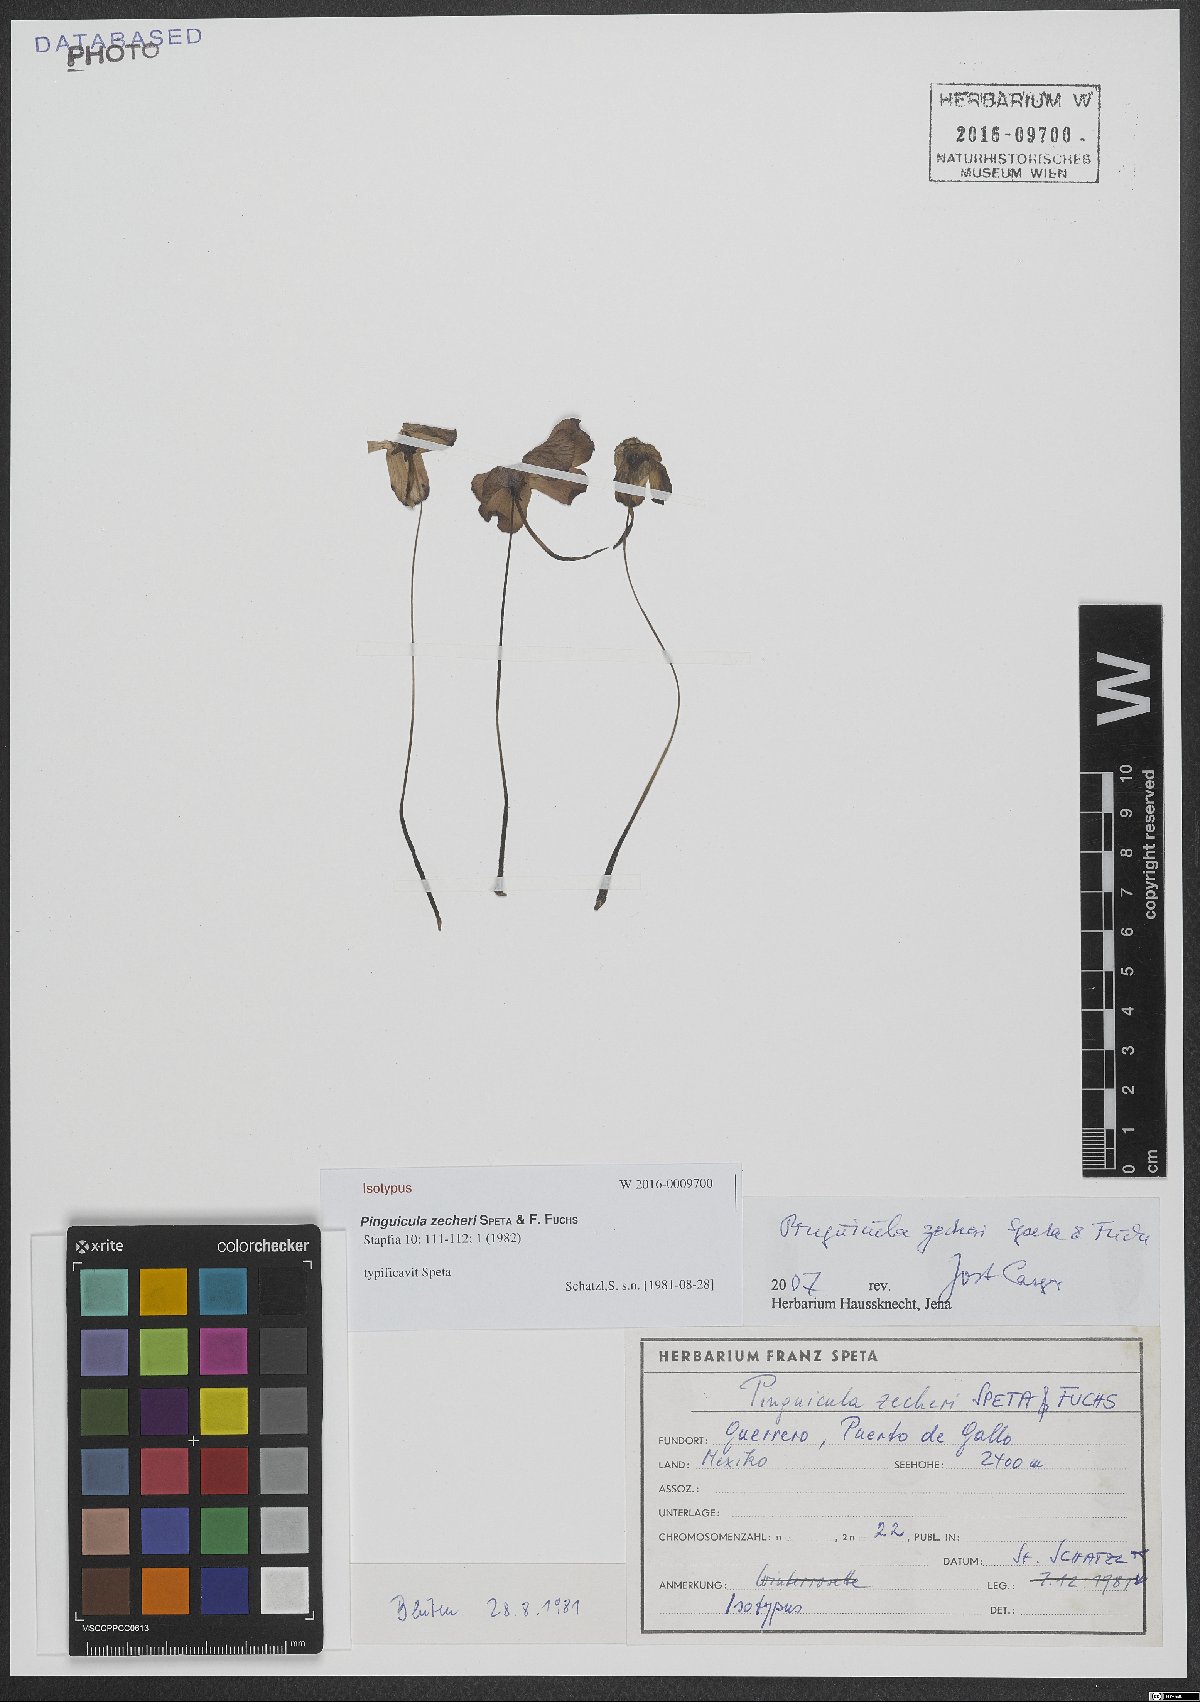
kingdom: Plantae
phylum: Tracheophyta
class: Magnoliopsida
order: Lamiales
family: Lentibulariaceae
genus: Pinguicula
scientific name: Pinguicula zecheri
